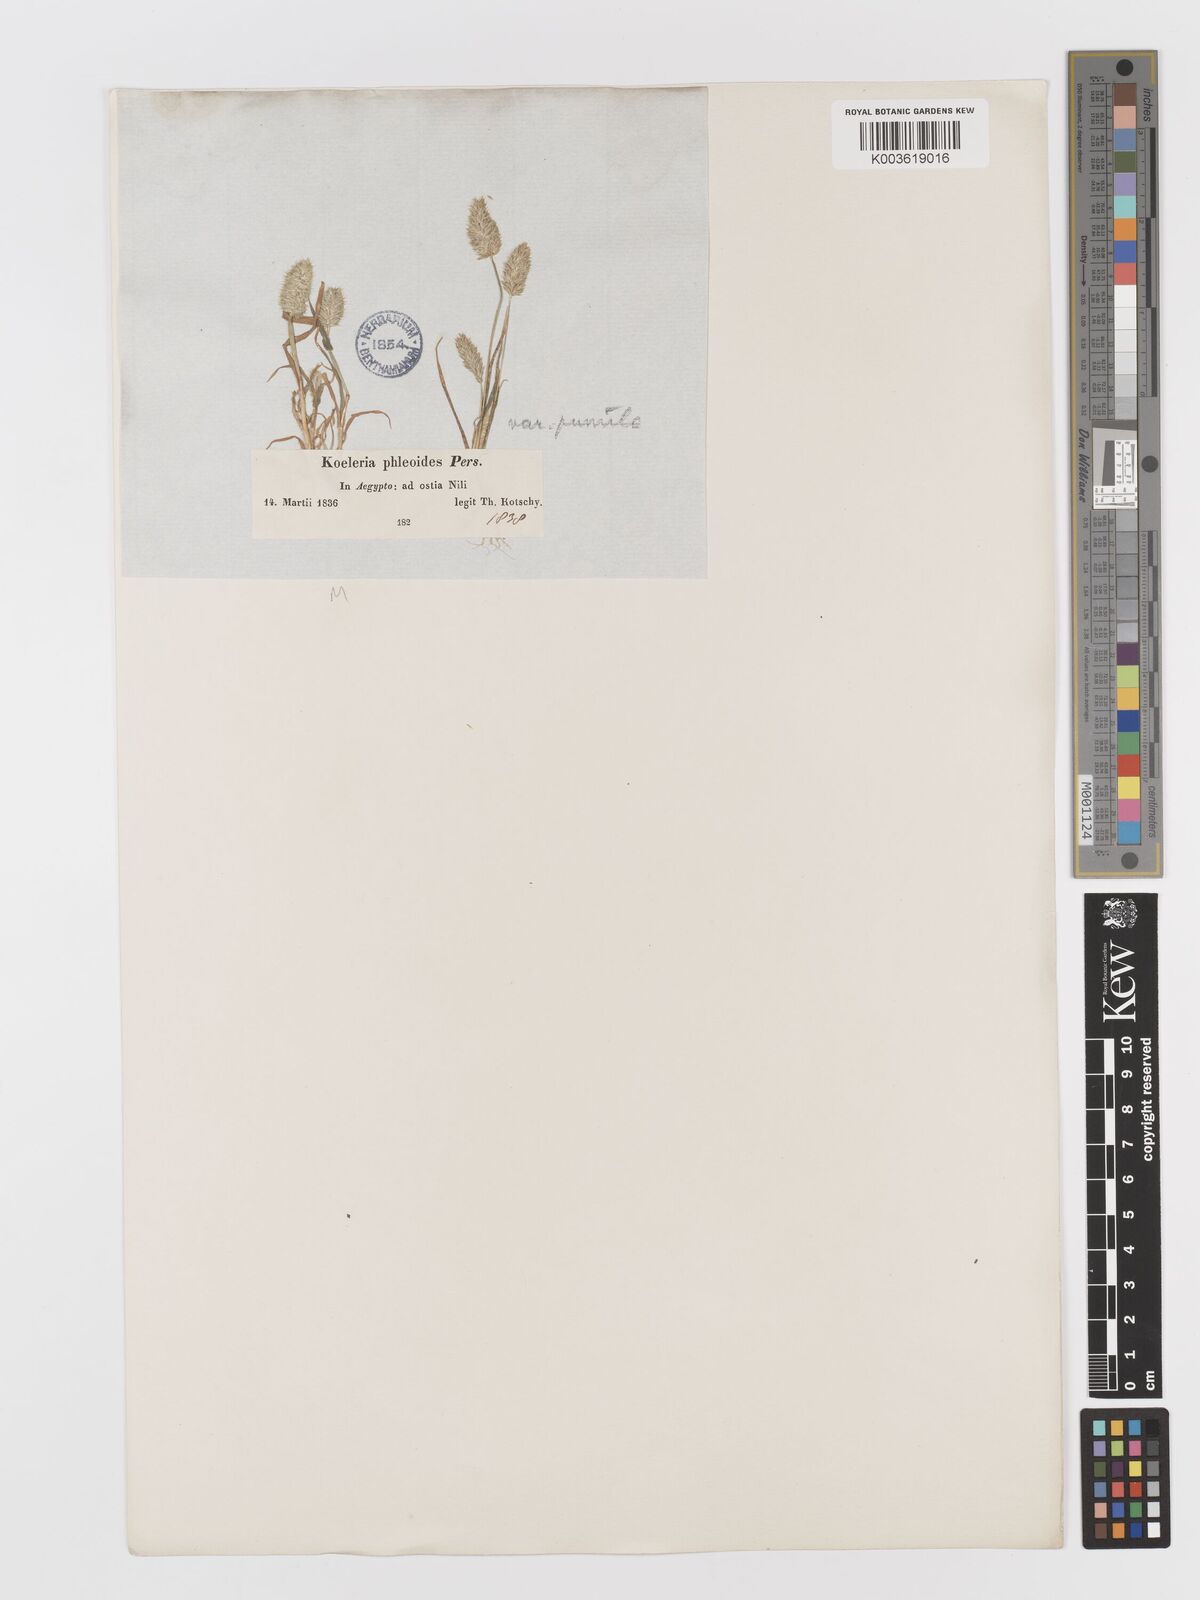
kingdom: Plantae
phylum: Tracheophyta
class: Liliopsida
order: Poales
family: Poaceae
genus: Rostraria
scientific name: Rostraria cristata
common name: Mediterranean hair-grass
